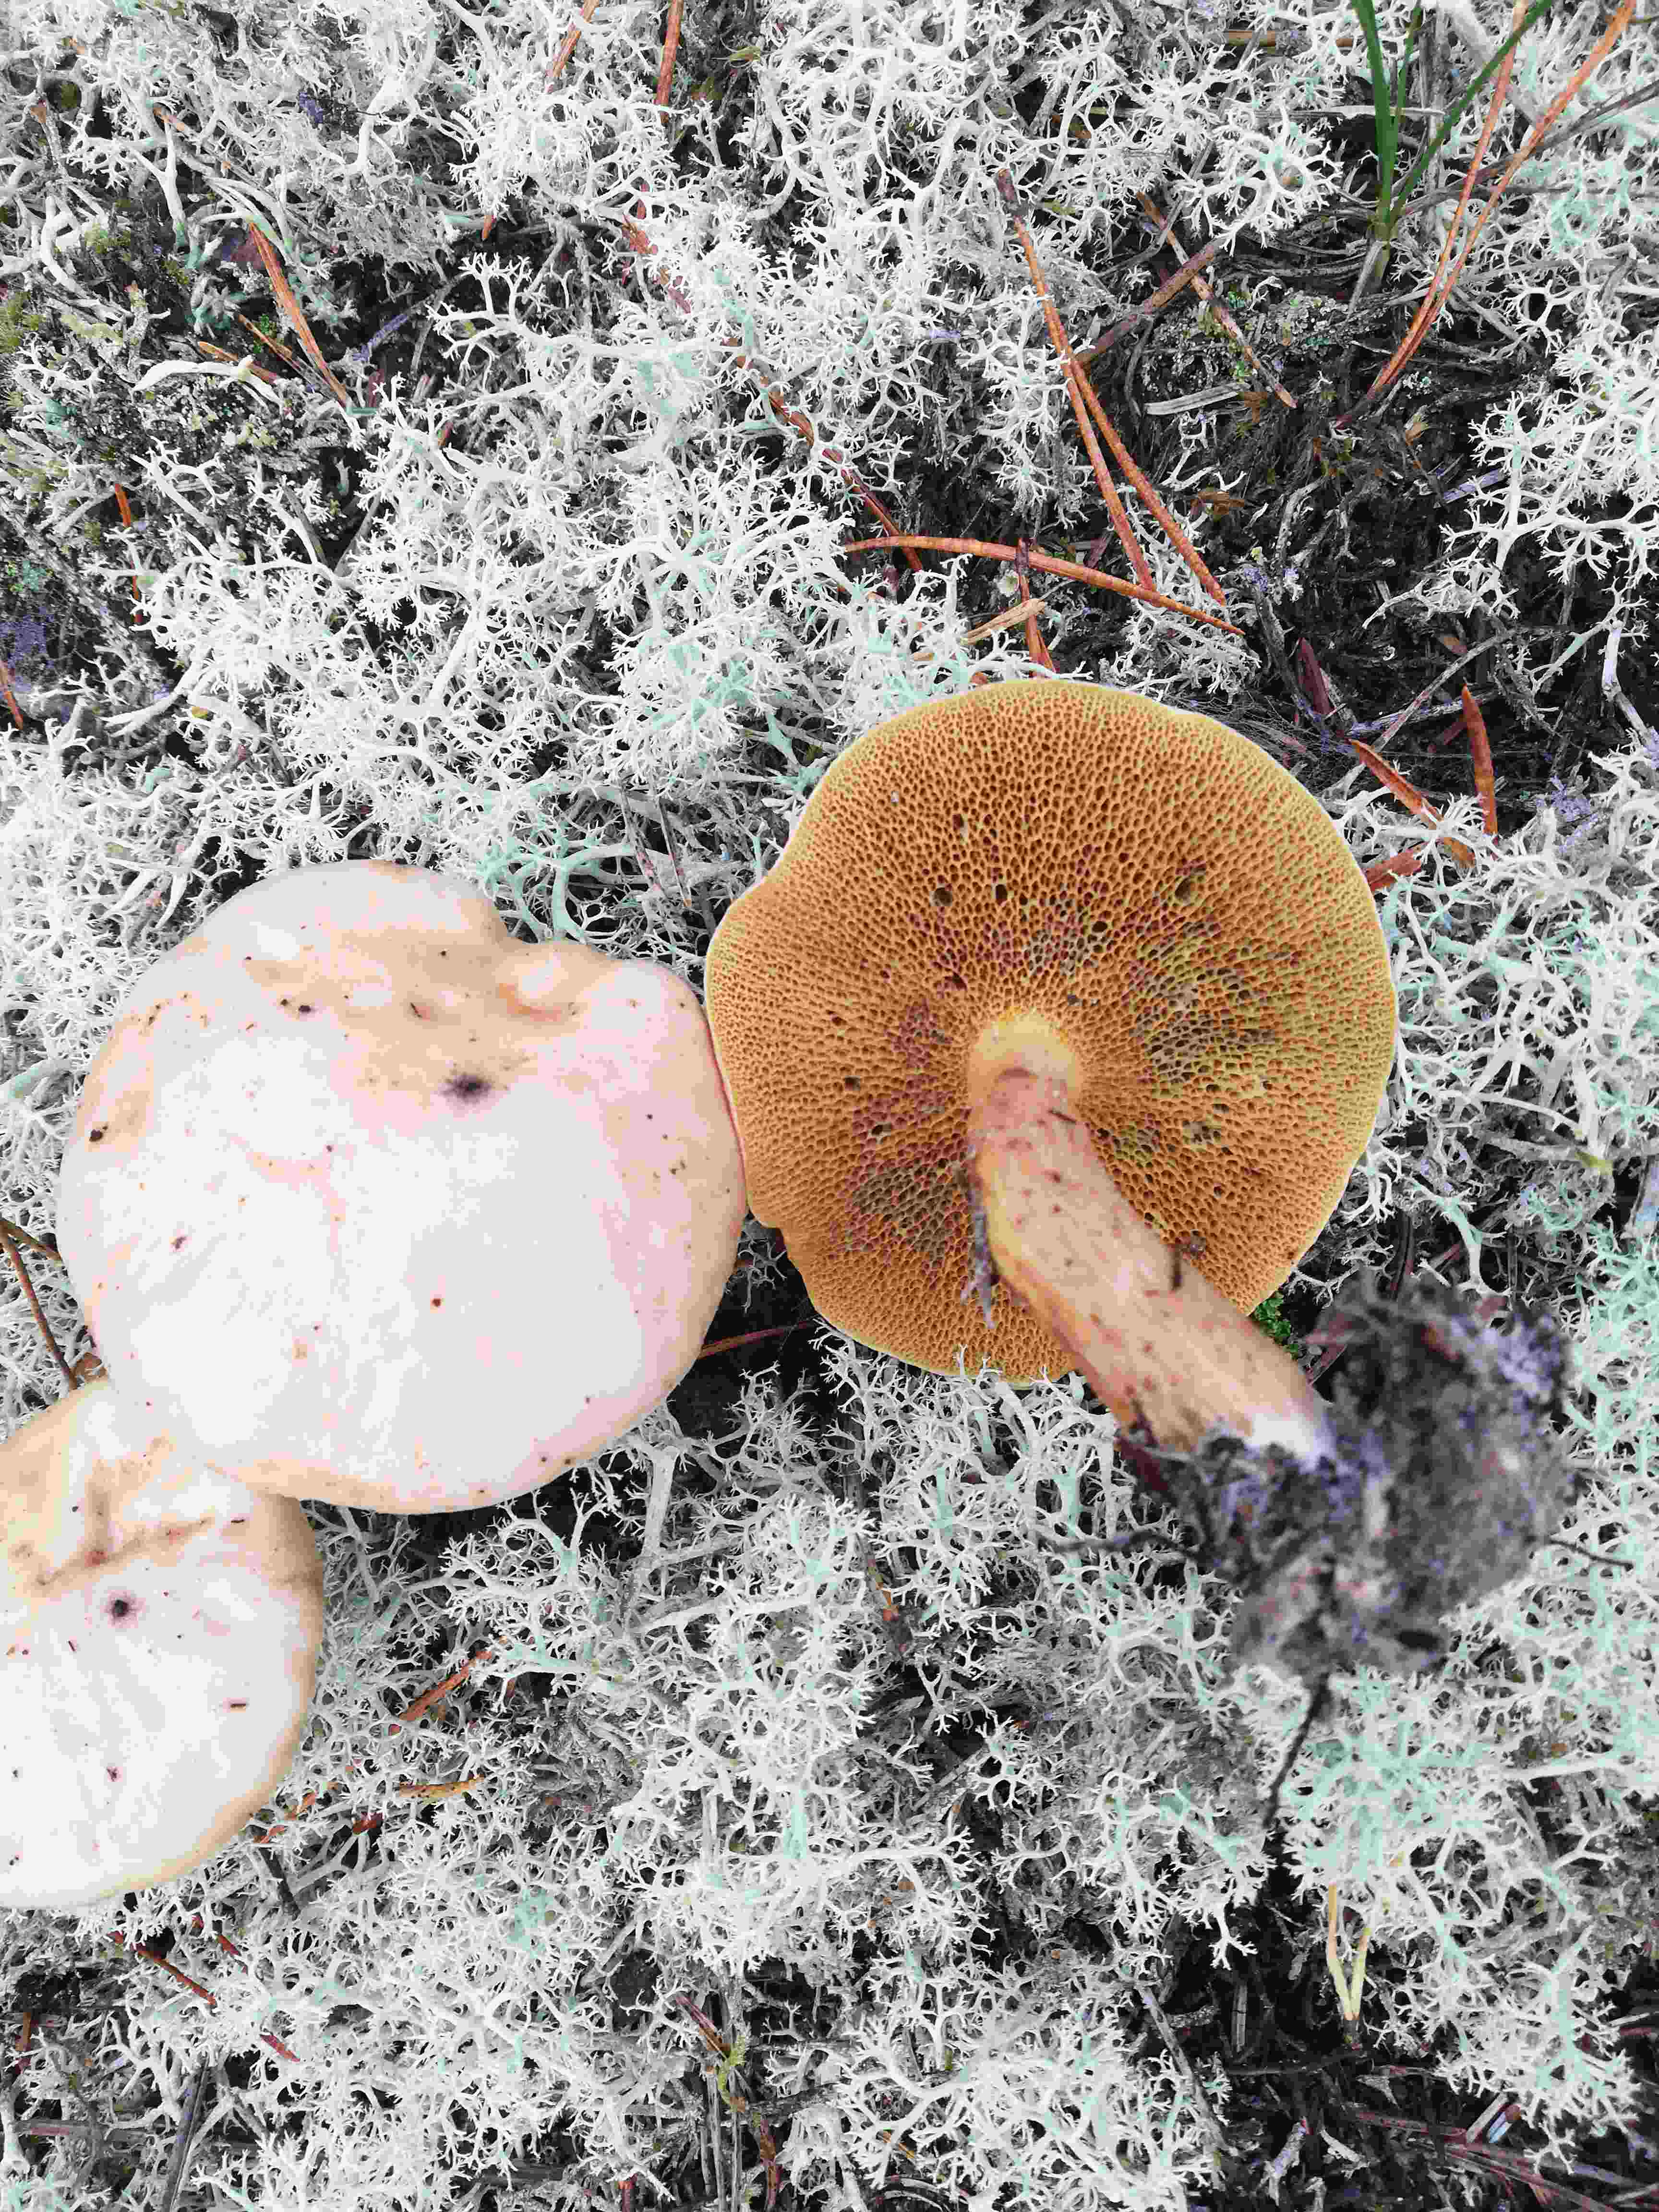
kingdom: Fungi
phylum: Basidiomycota
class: Agaricomycetes
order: Boletales
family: Suillaceae
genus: Suillus
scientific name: Suillus bovinus
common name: grovporet slimrørhat
